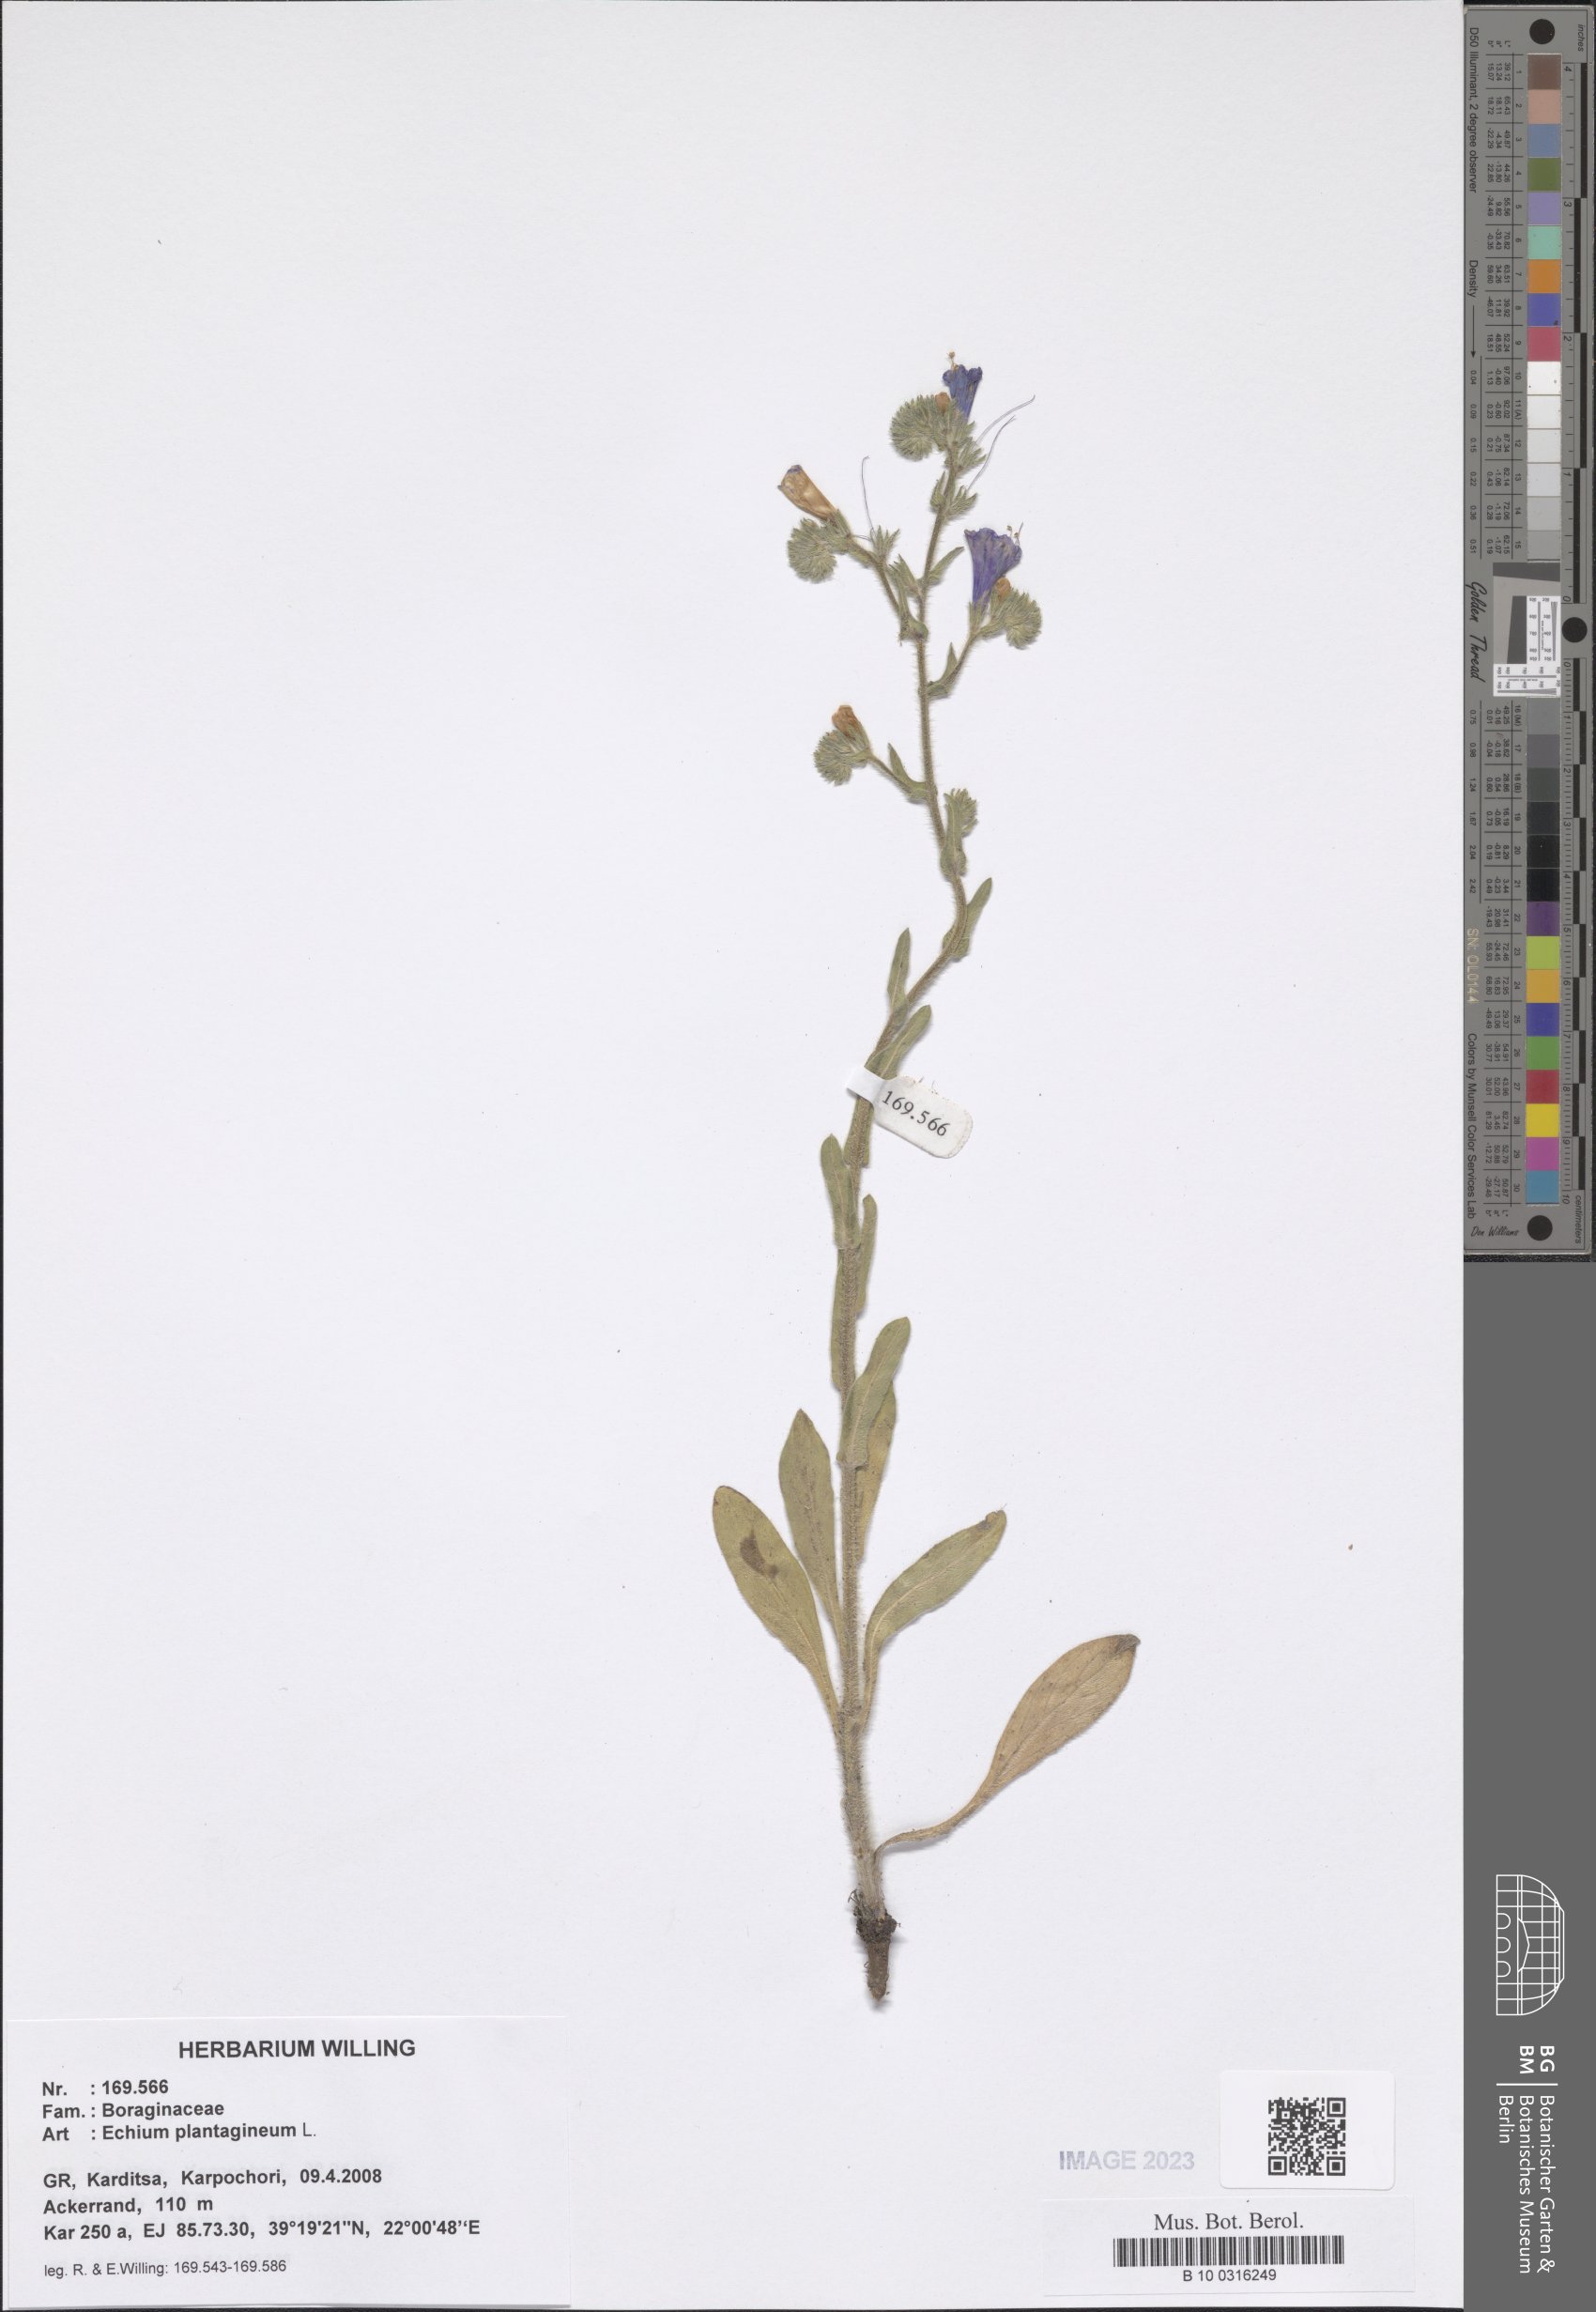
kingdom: Plantae
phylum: Tracheophyta
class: Magnoliopsida
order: Boraginales
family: Boraginaceae
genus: Echium
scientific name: Echium plantagineum
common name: Purple viper's-bugloss
